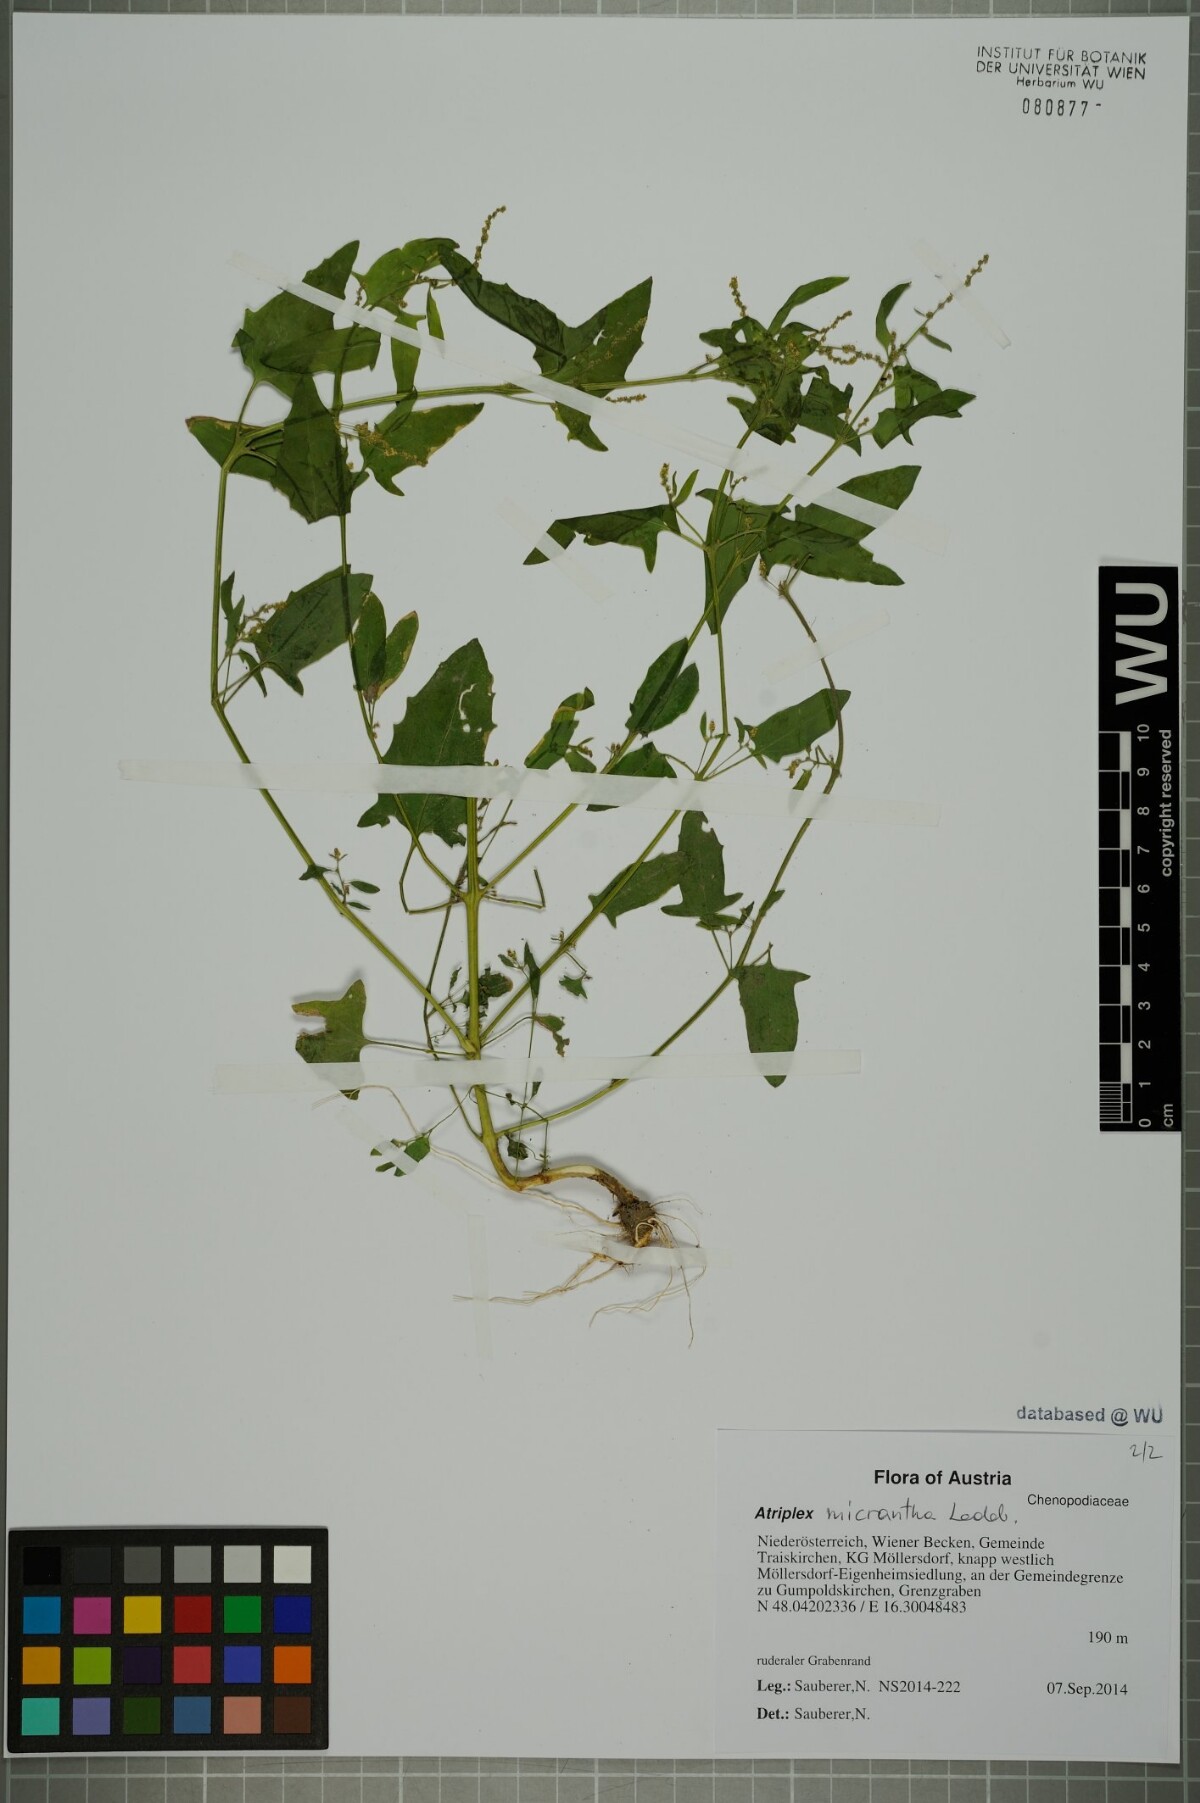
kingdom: Plantae
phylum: Tracheophyta
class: Magnoliopsida
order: Caryophyllales
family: Amaranthaceae
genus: Atriplex
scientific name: Atriplex micrantha
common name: Twoscale saltbush
